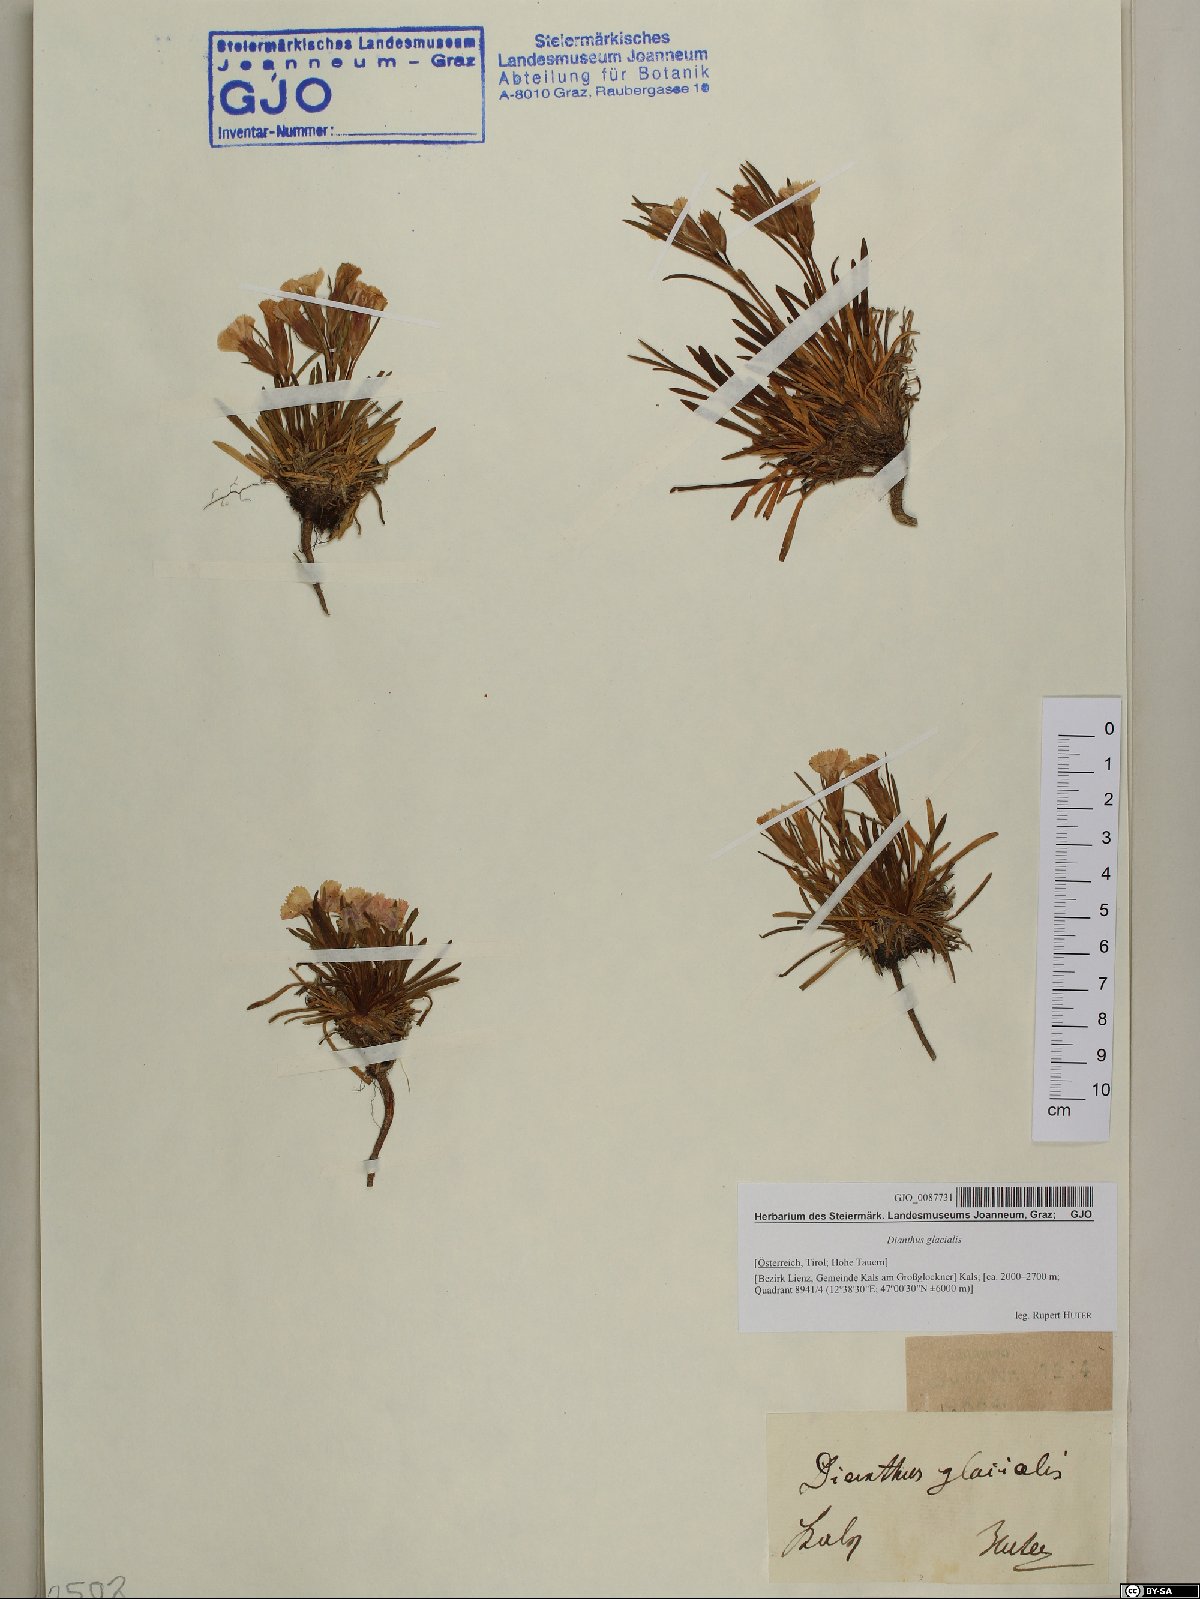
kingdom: Plantae
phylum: Tracheophyta
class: Magnoliopsida
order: Caryophyllales
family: Caryophyllaceae
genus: Dianthus
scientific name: Dianthus glacialis
